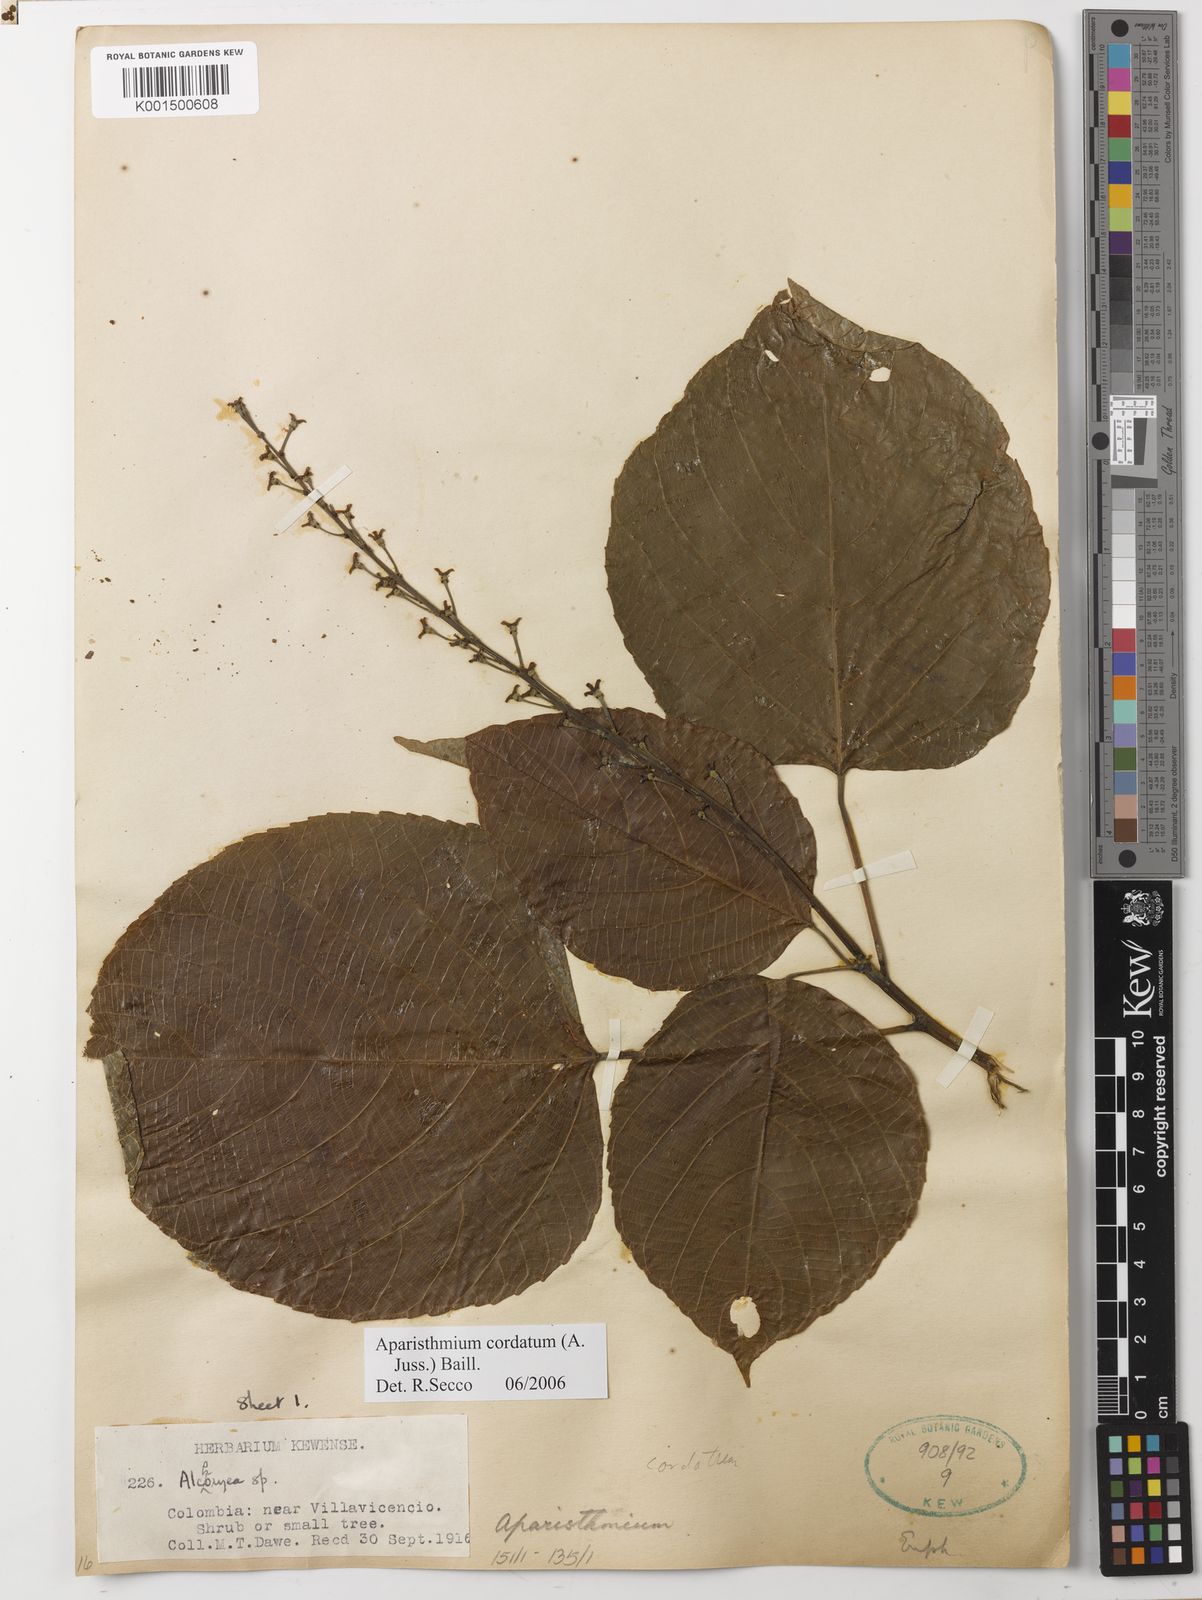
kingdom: Plantae
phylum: Tracheophyta
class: Magnoliopsida
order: Malpighiales
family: Euphorbiaceae
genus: Aparisthmium
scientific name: Aparisthmium cordatum
